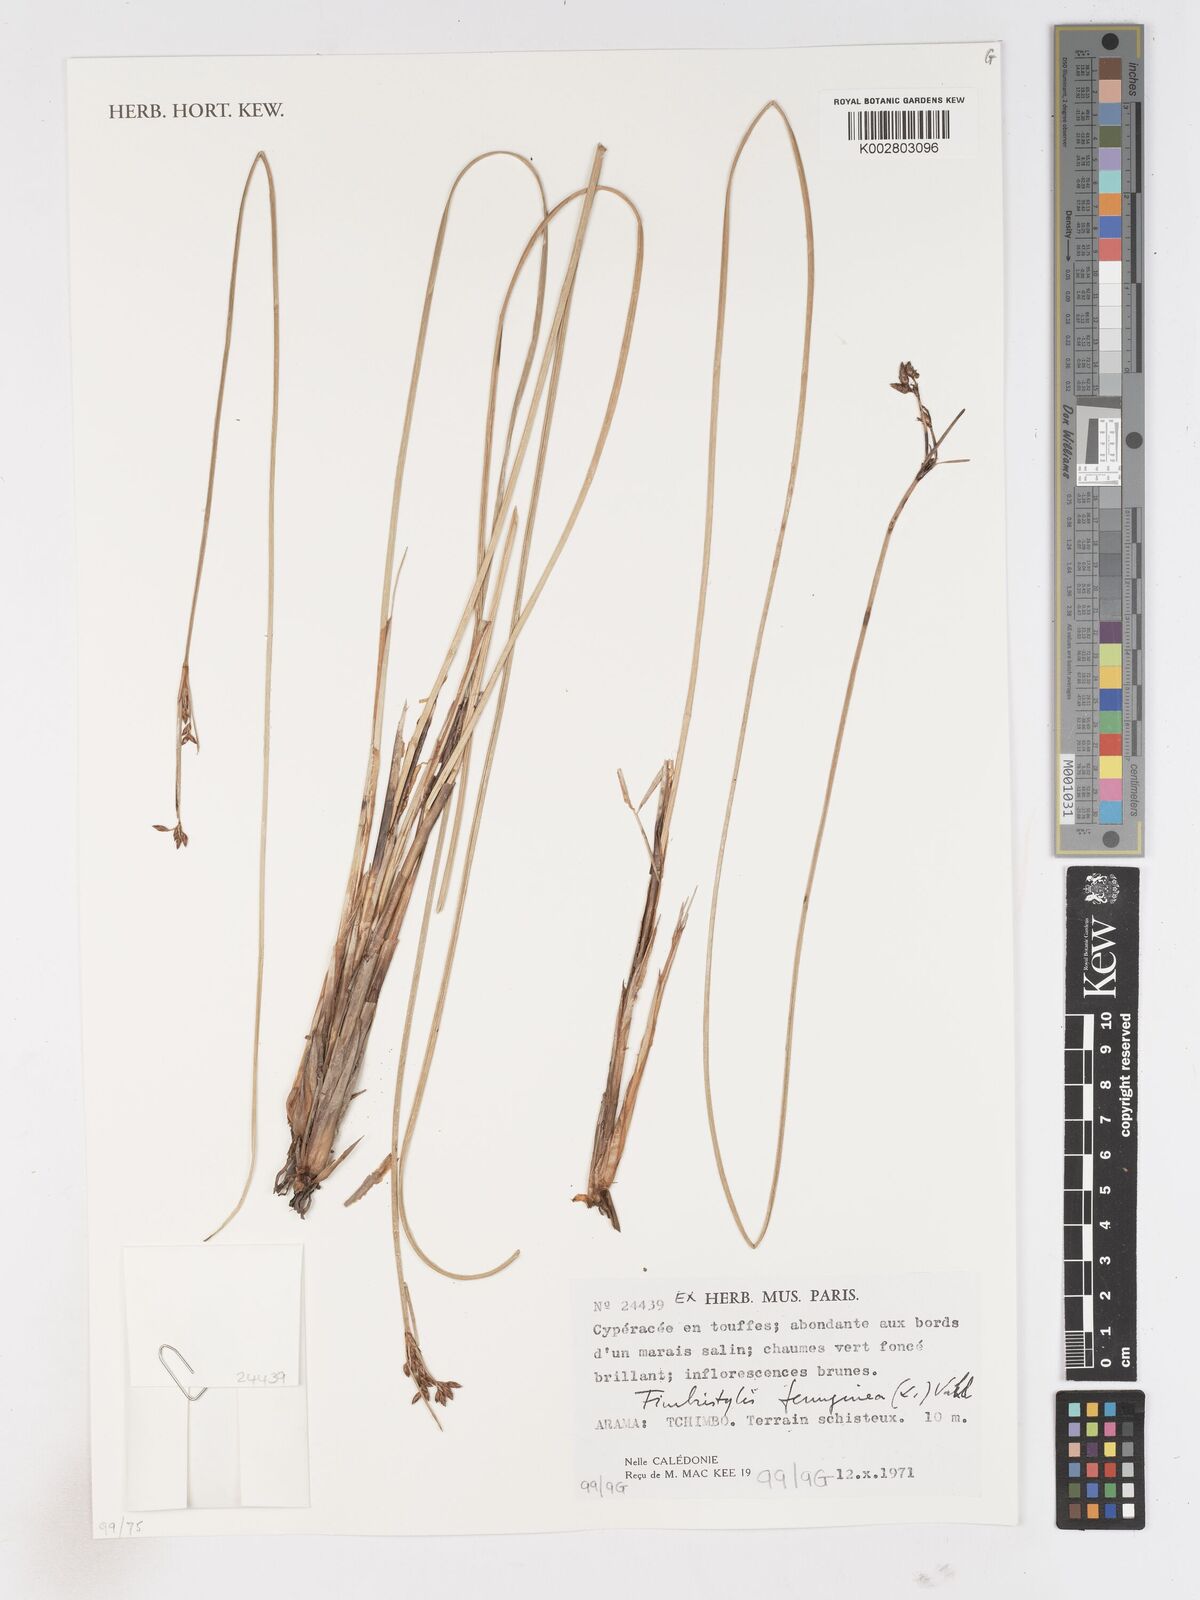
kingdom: Plantae
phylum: Tracheophyta
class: Liliopsida
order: Poales
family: Cyperaceae
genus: Fimbristylis
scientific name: Fimbristylis ferruginea
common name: West indian fimbry
